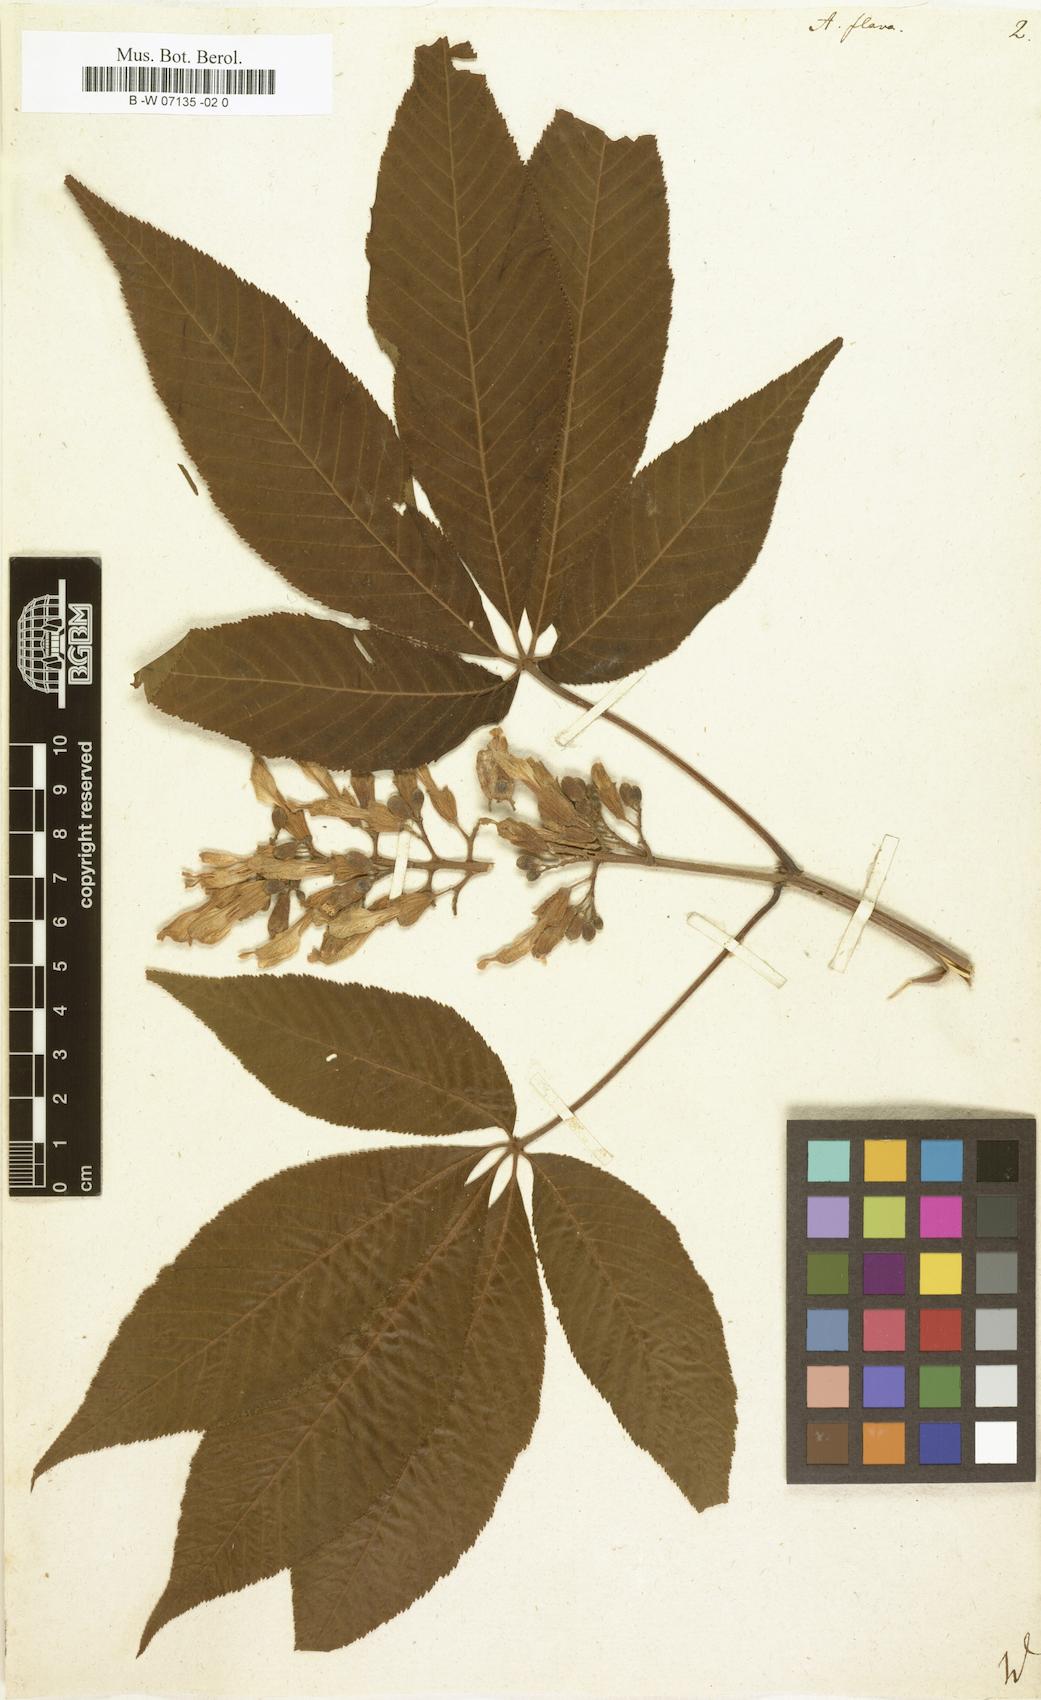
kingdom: Plantae
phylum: Tracheophyta
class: Magnoliopsida
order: Sapindales
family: Sapindaceae
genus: Aesculus
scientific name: Aesculus flava
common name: Yellow buckeye
